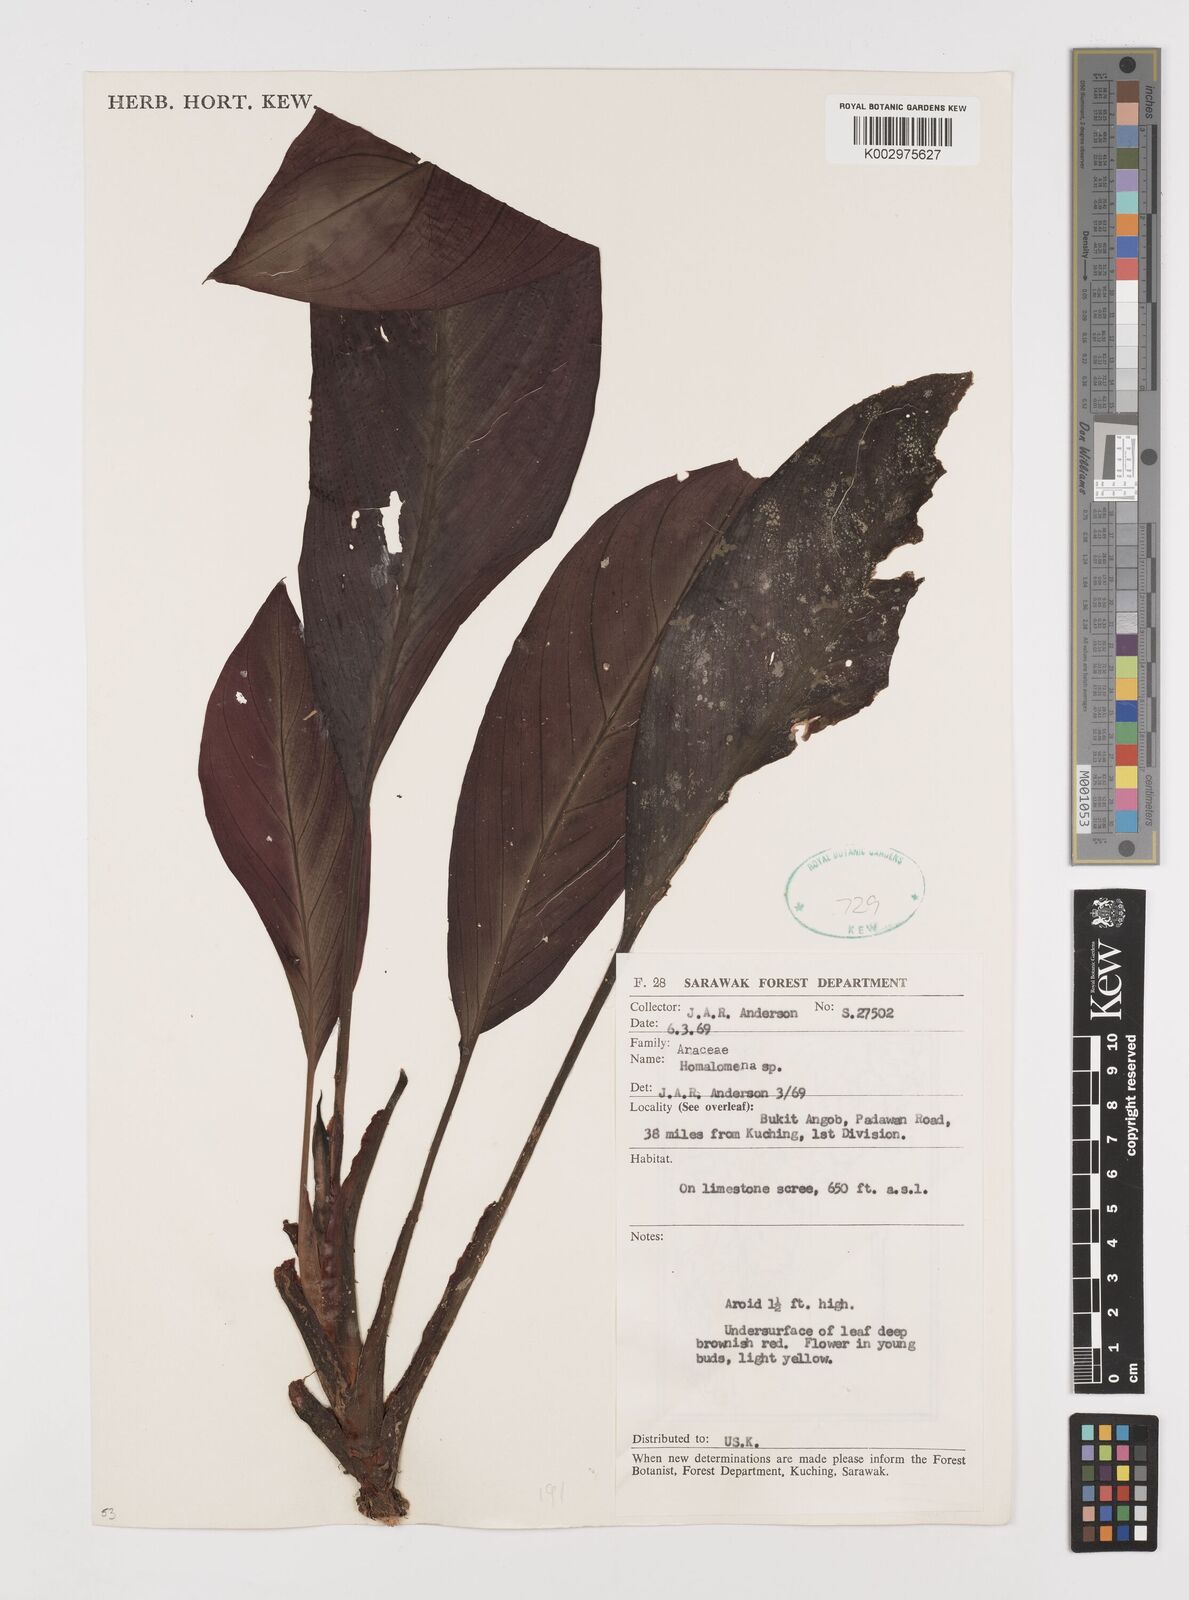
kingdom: Plantae
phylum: Tracheophyta
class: Liliopsida
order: Alismatales
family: Araceae
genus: Homalomena
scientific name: Homalomena
